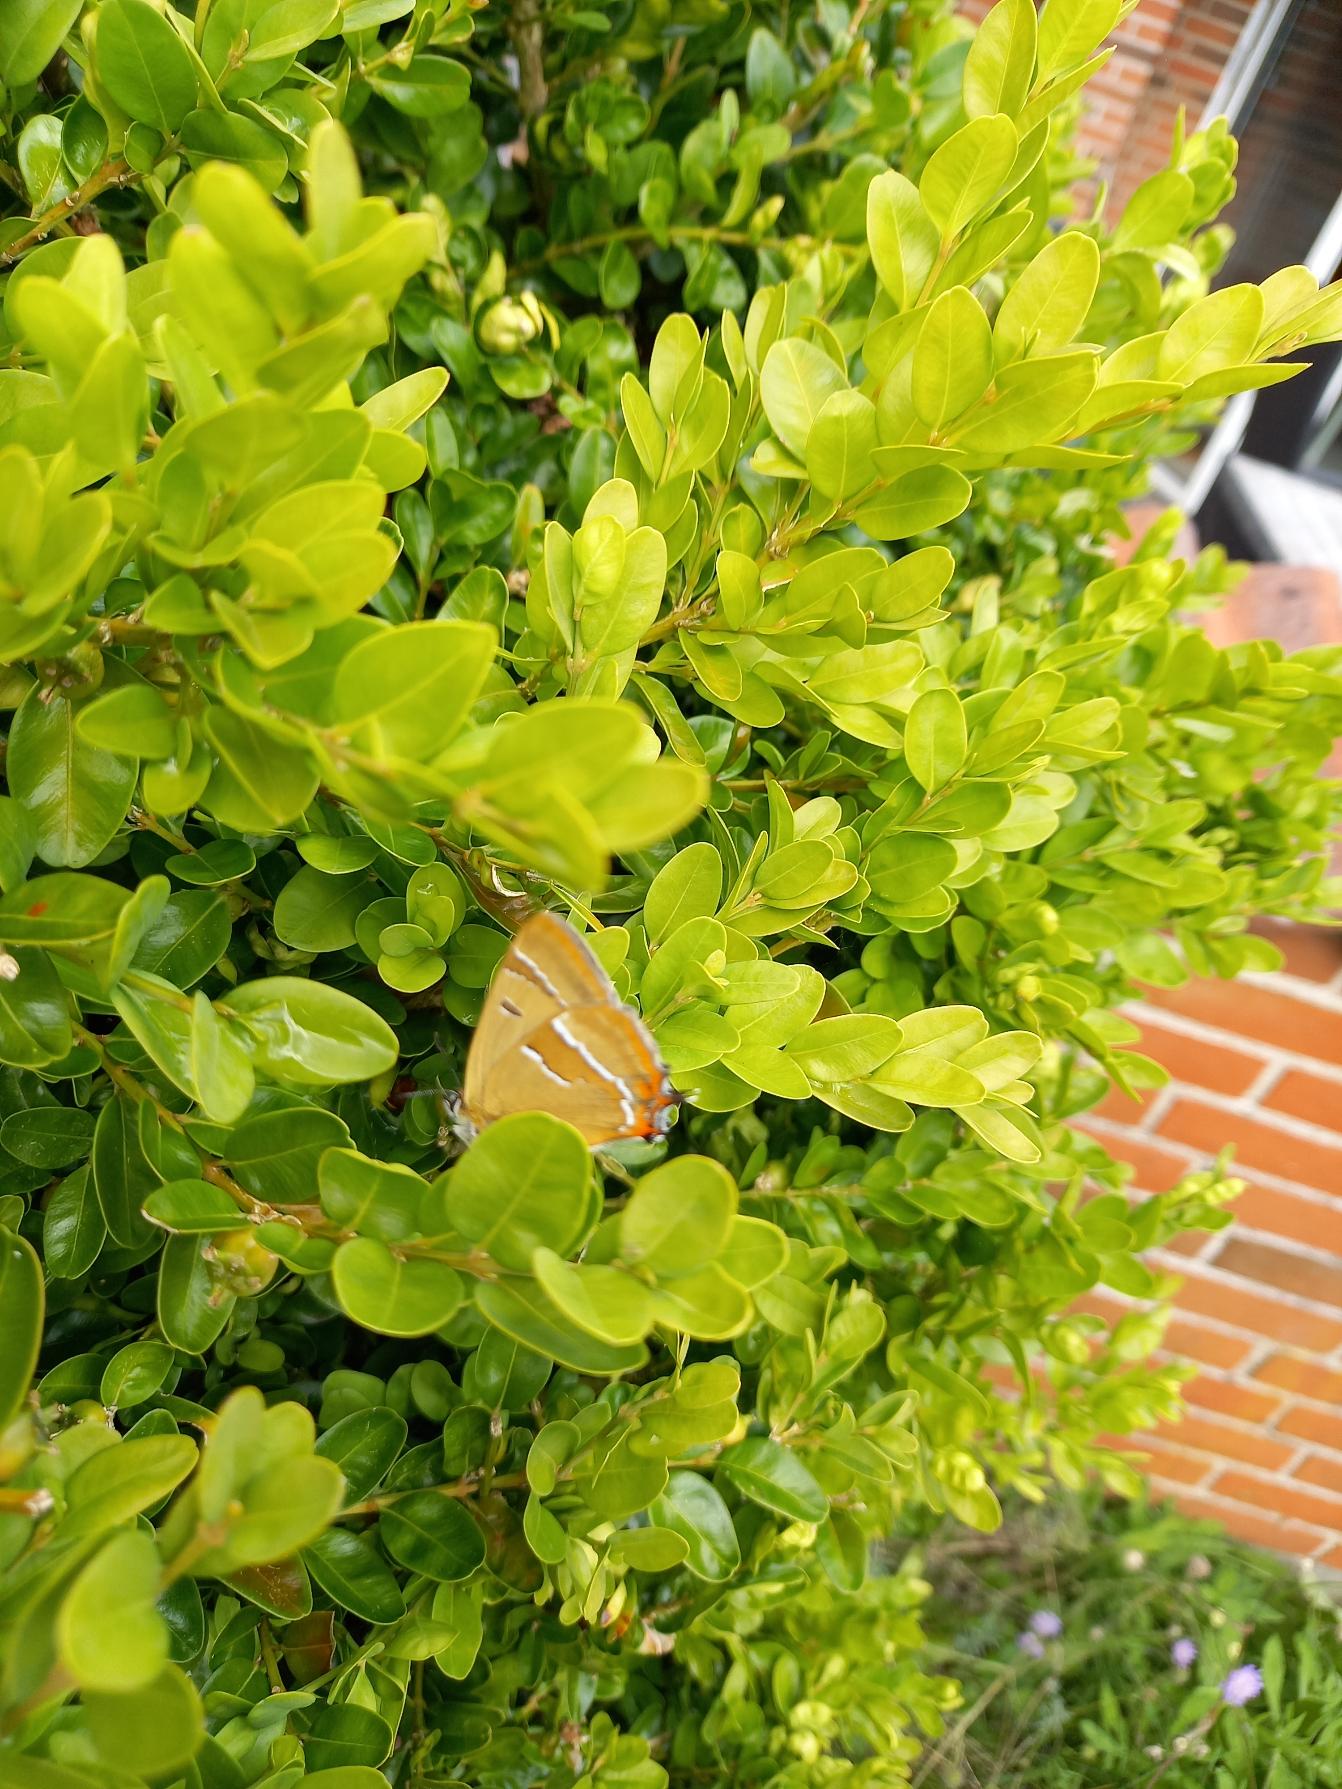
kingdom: Animalia
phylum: Arthropoda
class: Insecta
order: Lepidoptera
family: Lycaenidae
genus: Thecla
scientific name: Thecla betulae
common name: Guldhale
